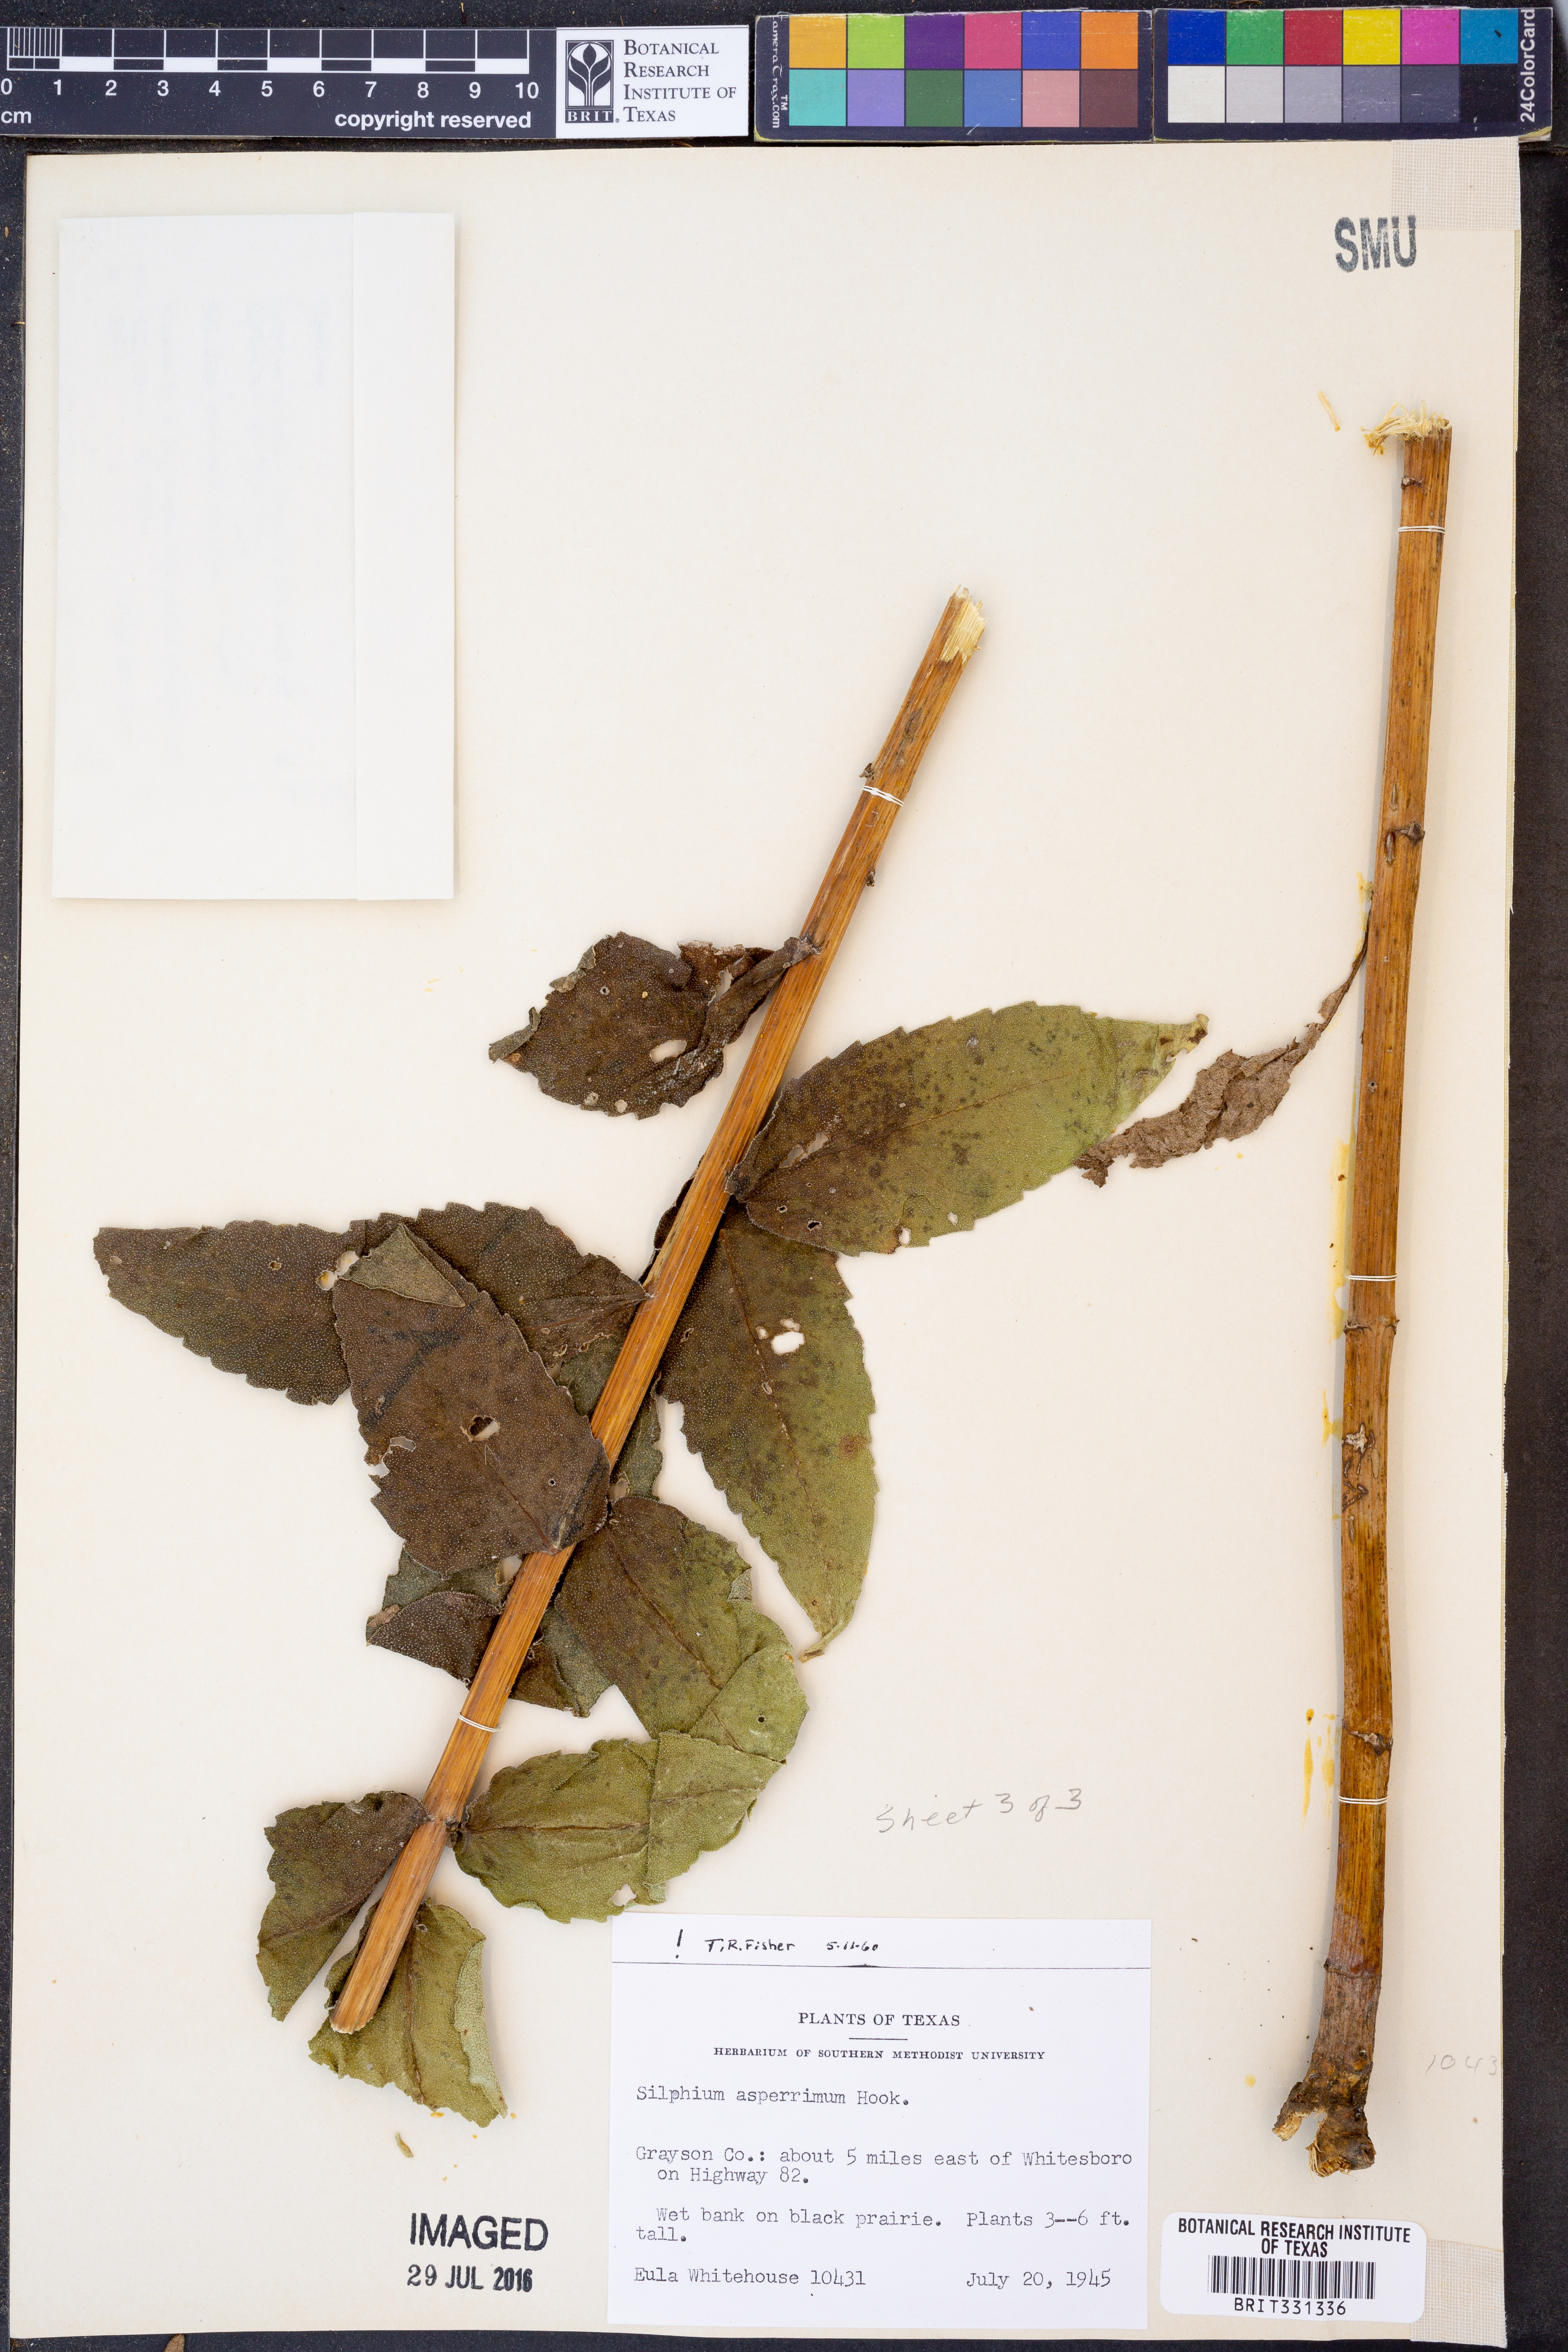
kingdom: Plantae
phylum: Tracheophyta
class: Magnoliopsida
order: Asterales
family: Asteraceae
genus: Silphium
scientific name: Silphium asperrimum
